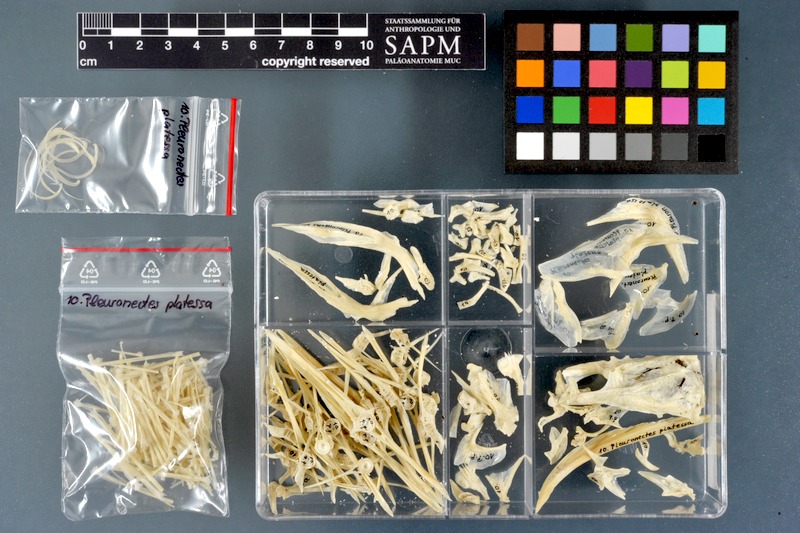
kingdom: Animalia
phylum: Chordata
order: Pleuronectiformes
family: Pleuronectidae
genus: Pleuronectes
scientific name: Pleuronectes platessa
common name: Plaice
